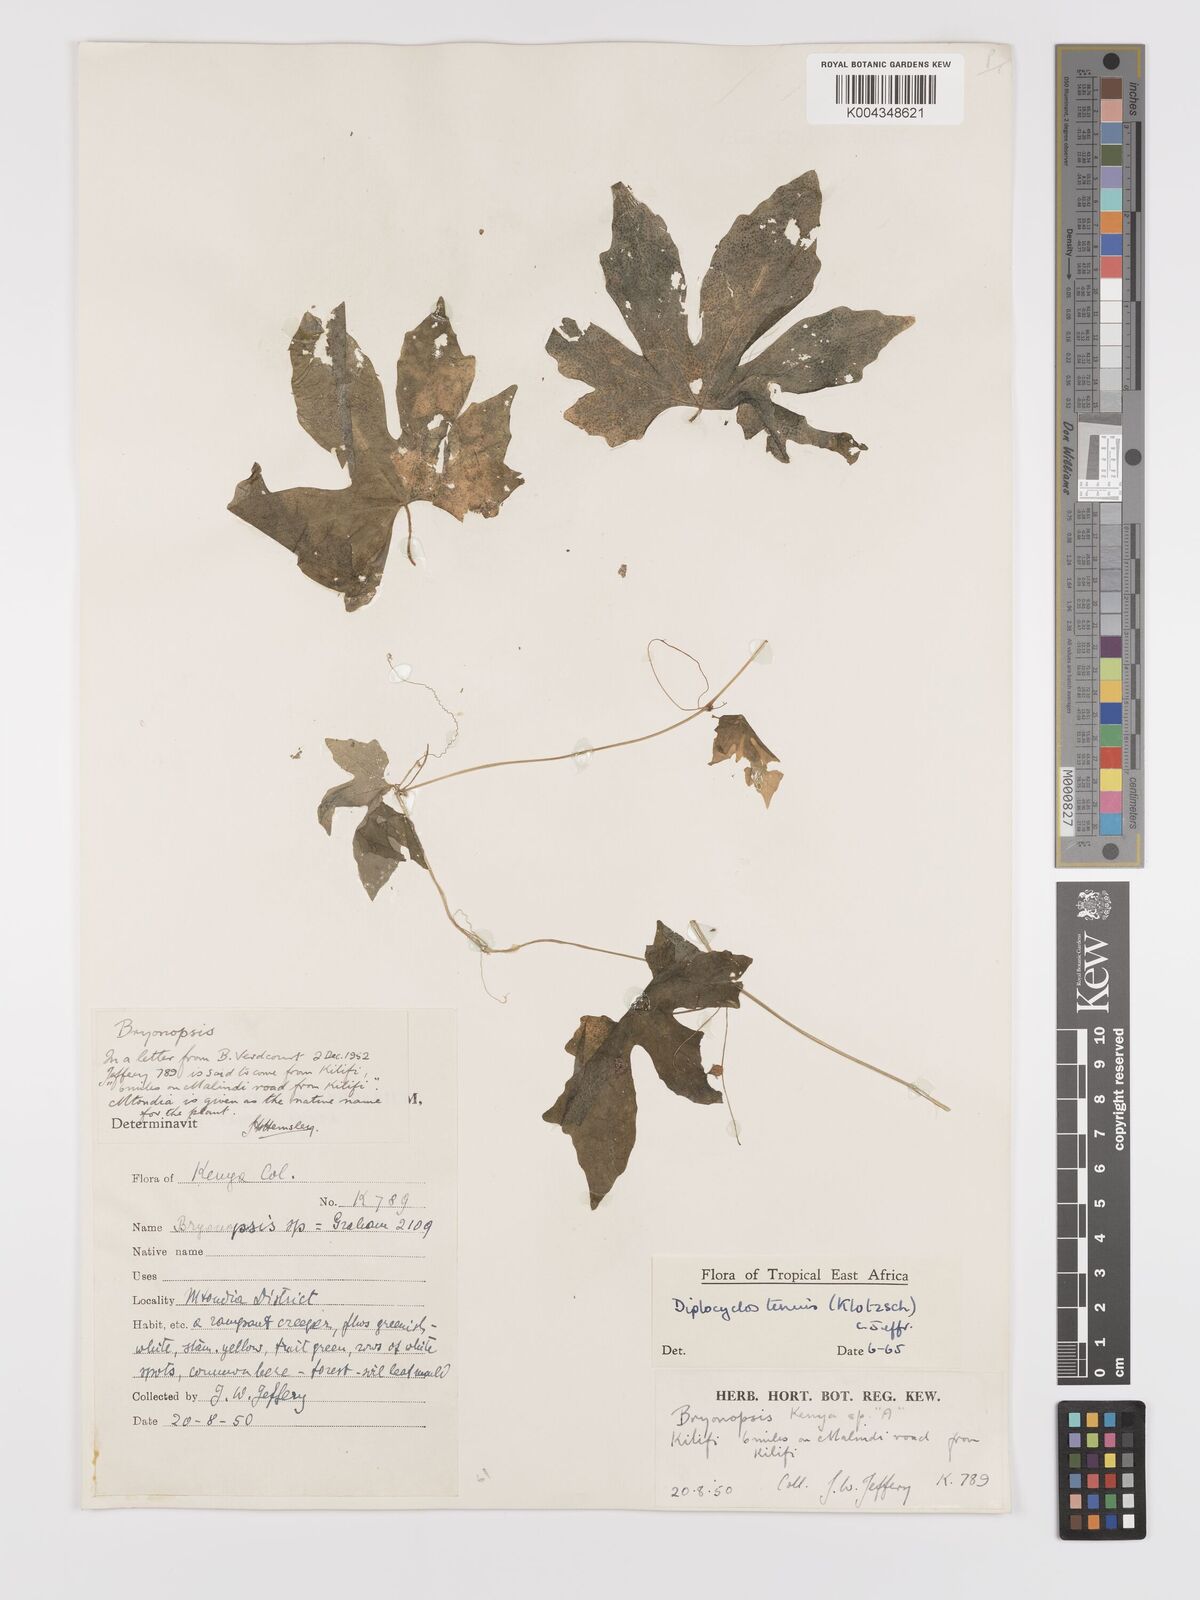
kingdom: Plantae
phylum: Tracheophyta
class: Magnoliopsida
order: Cucurbitales
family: Cucurbitaceae
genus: Diplocyclos
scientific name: Diplocyclos tenuis
